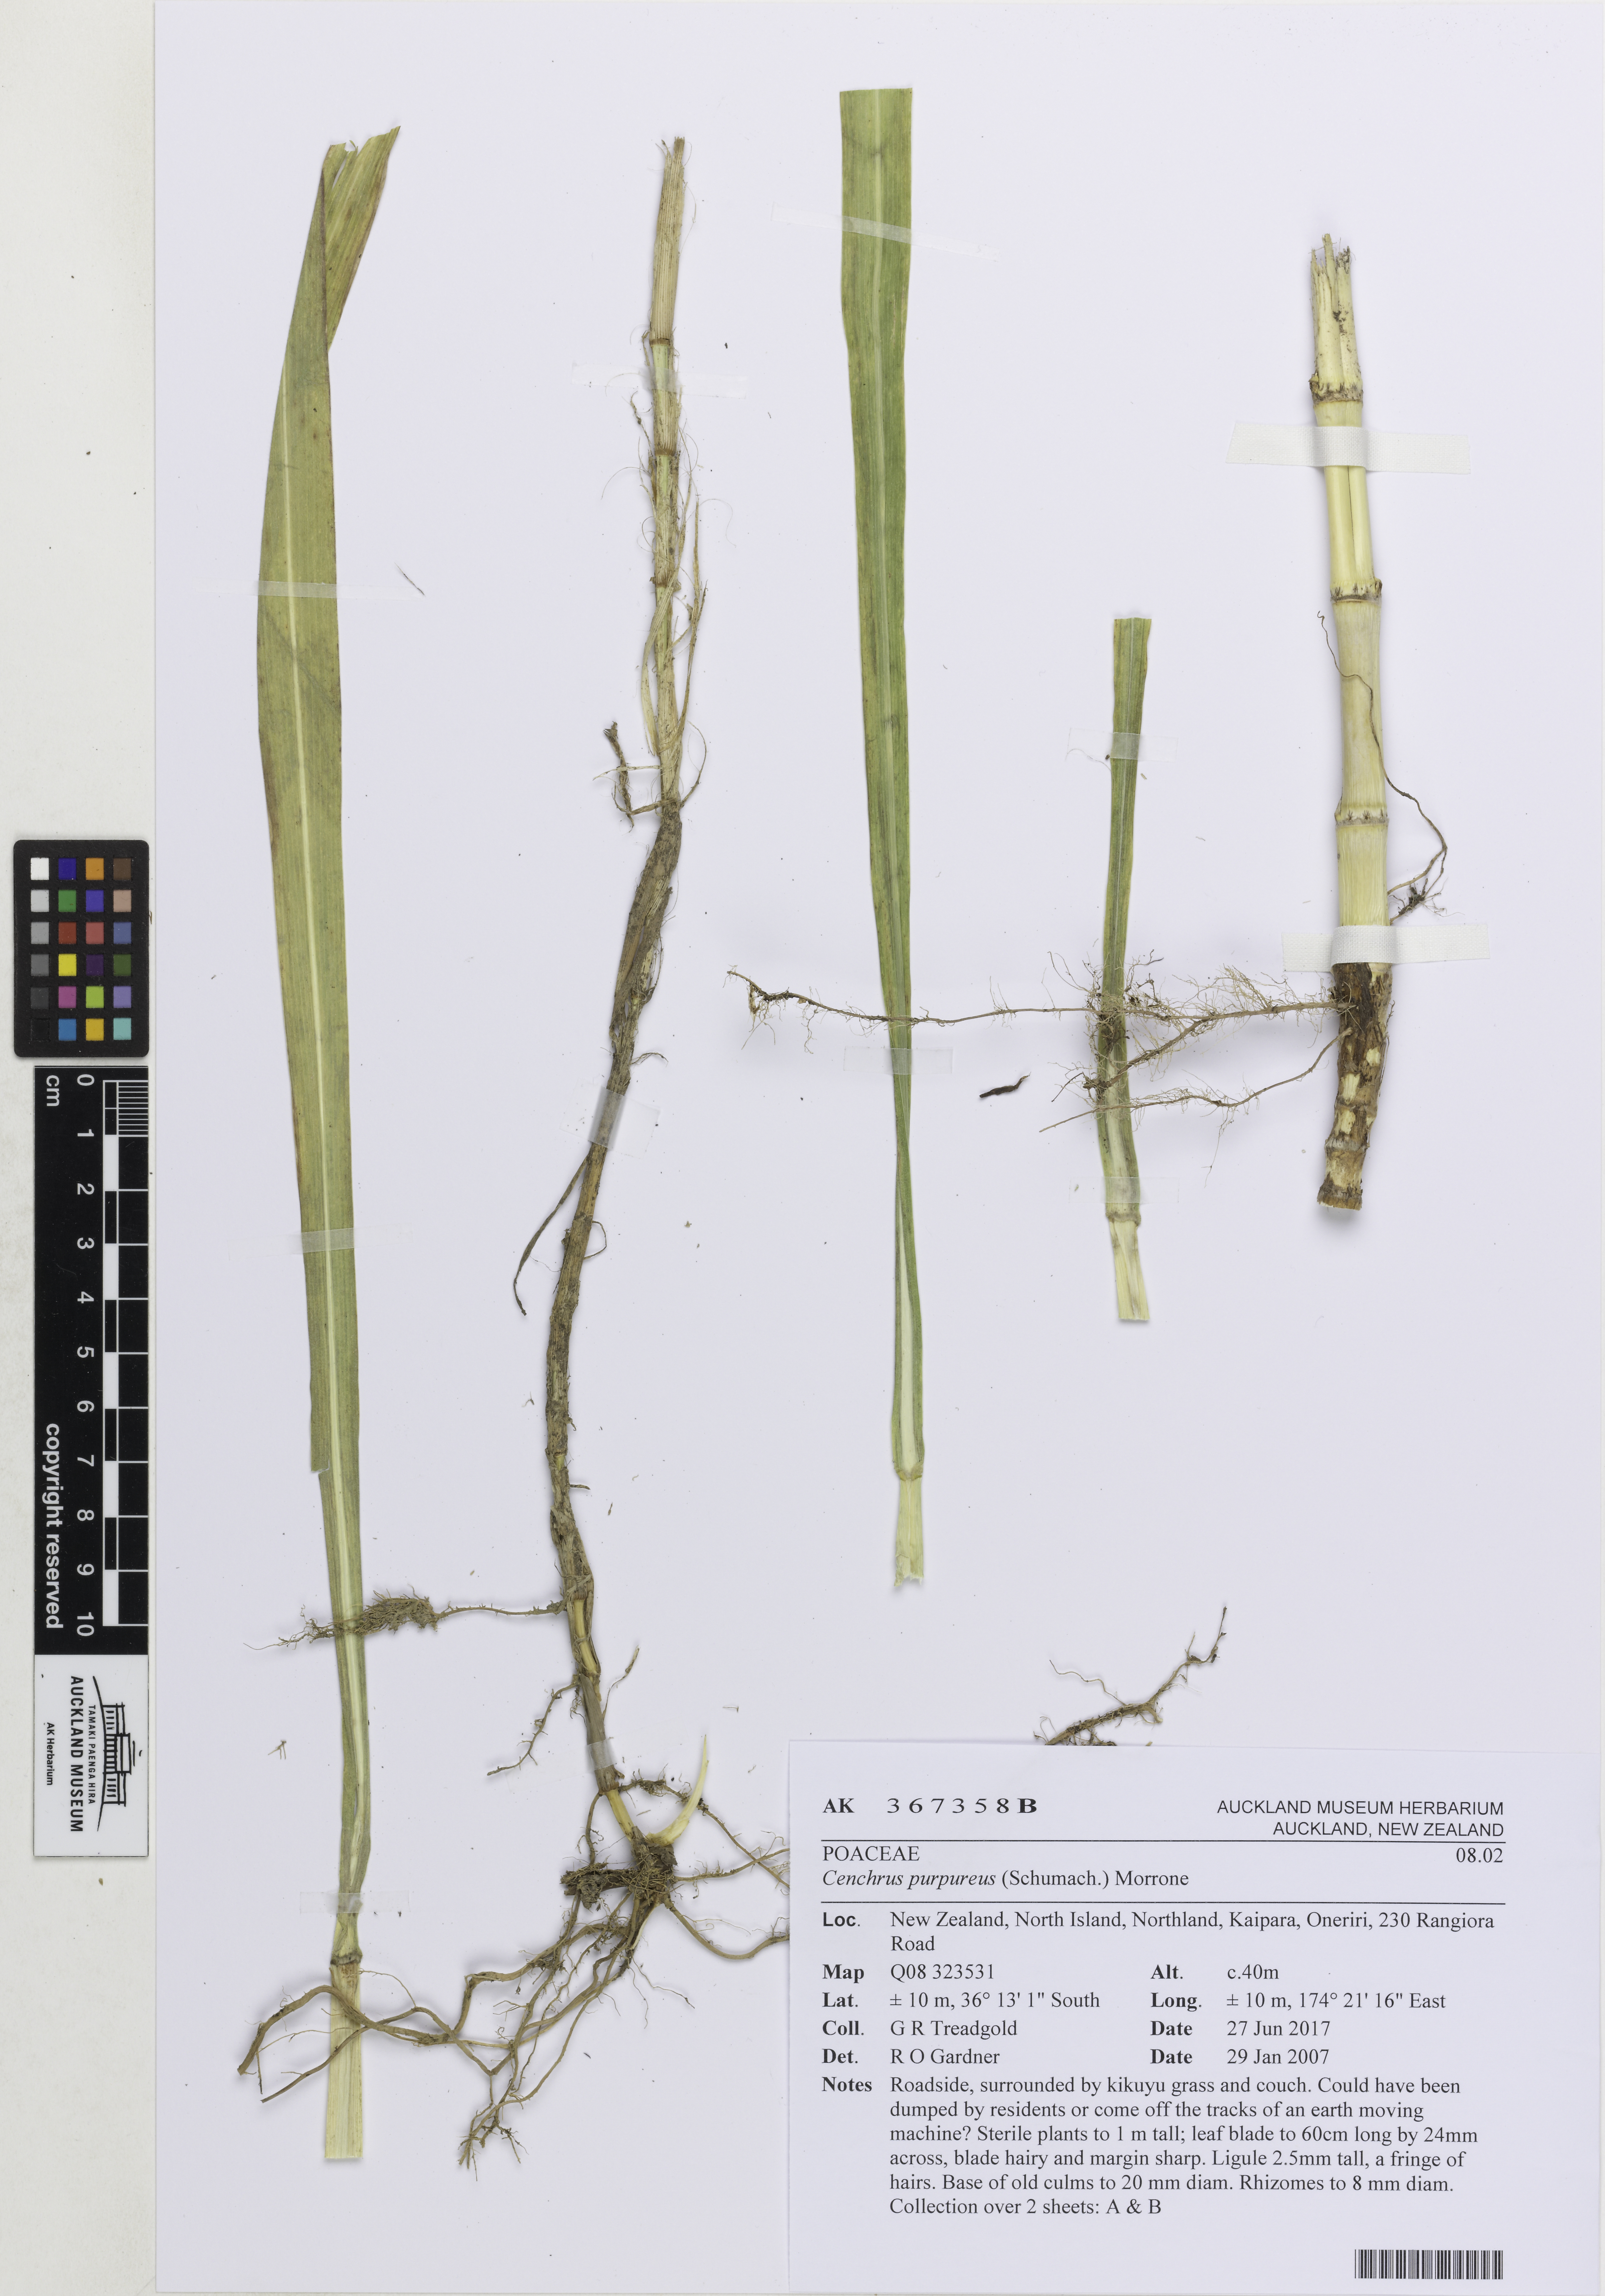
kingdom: Plantae
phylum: Tracheophyta
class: Liliopsida
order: Poales
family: Poaceae
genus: Cenchrus
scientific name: Cenchrus purpureus
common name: Elephant grass
